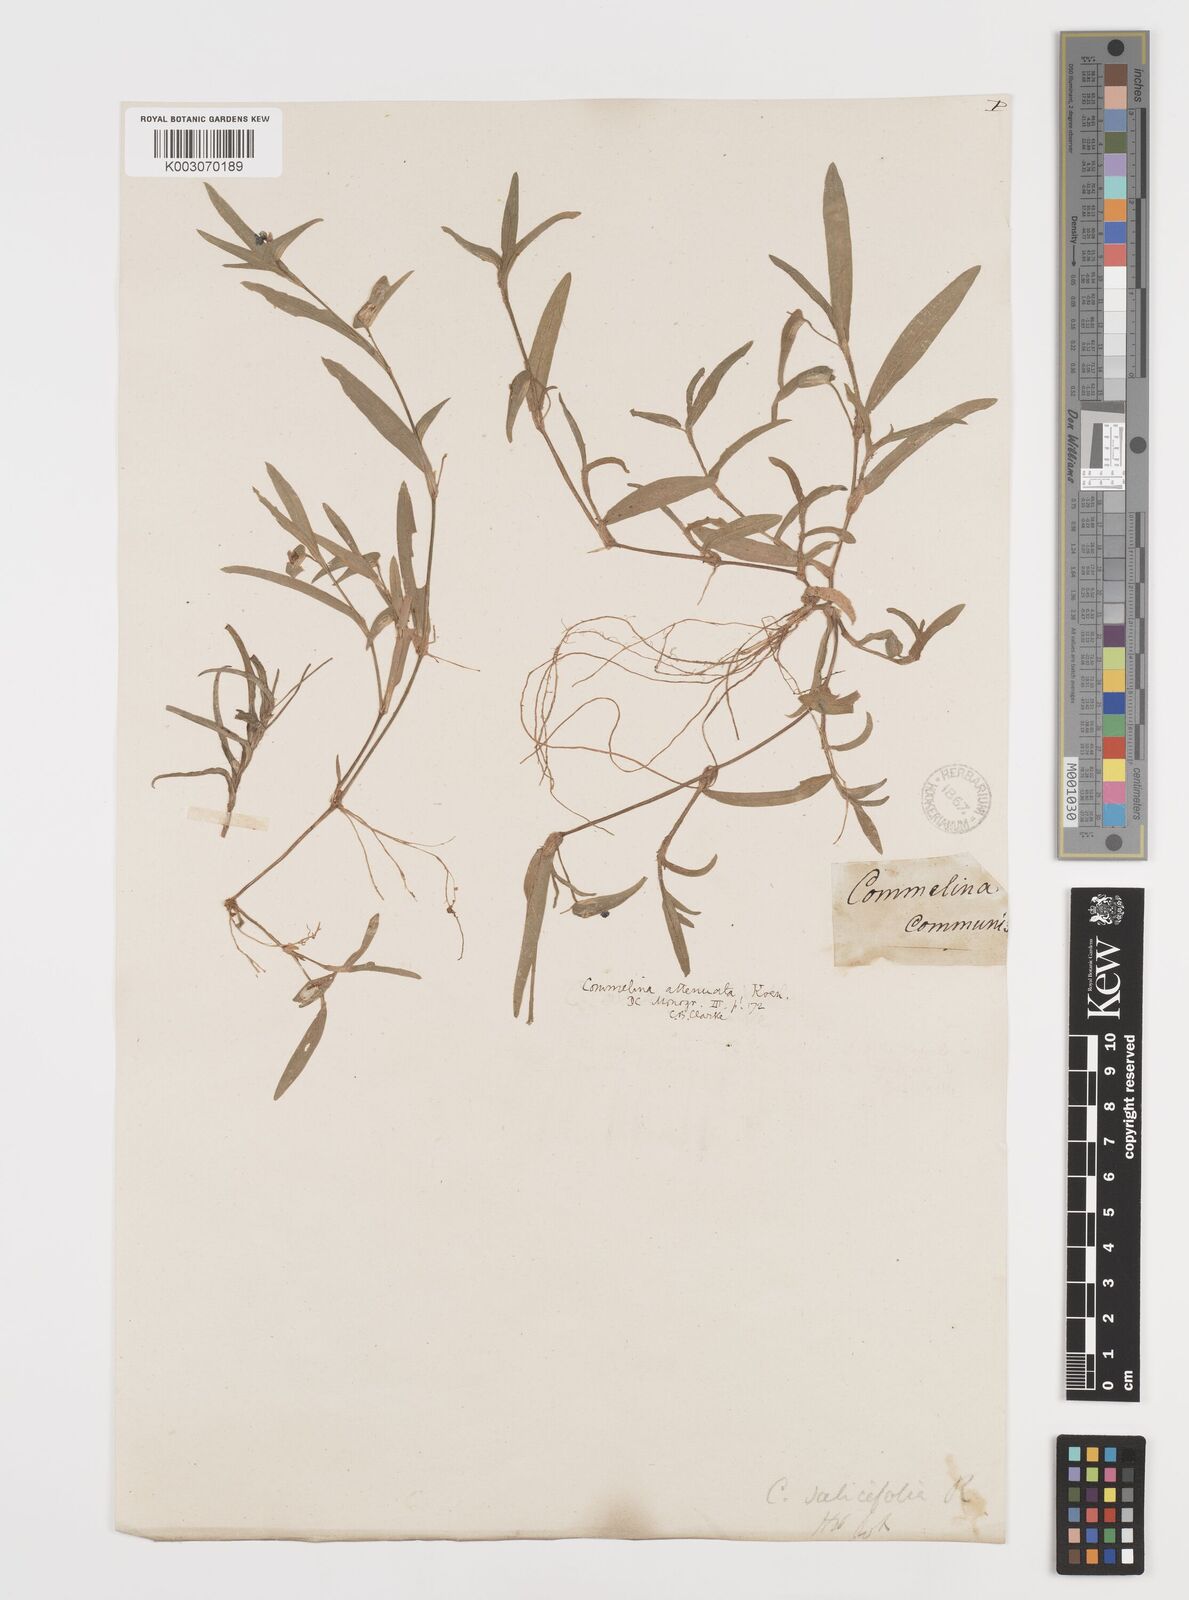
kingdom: Plantae
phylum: Tracheophyta
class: Liliopsida
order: Commelinales
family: Commelinaceae
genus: Commelina
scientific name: Commelina attenuata
